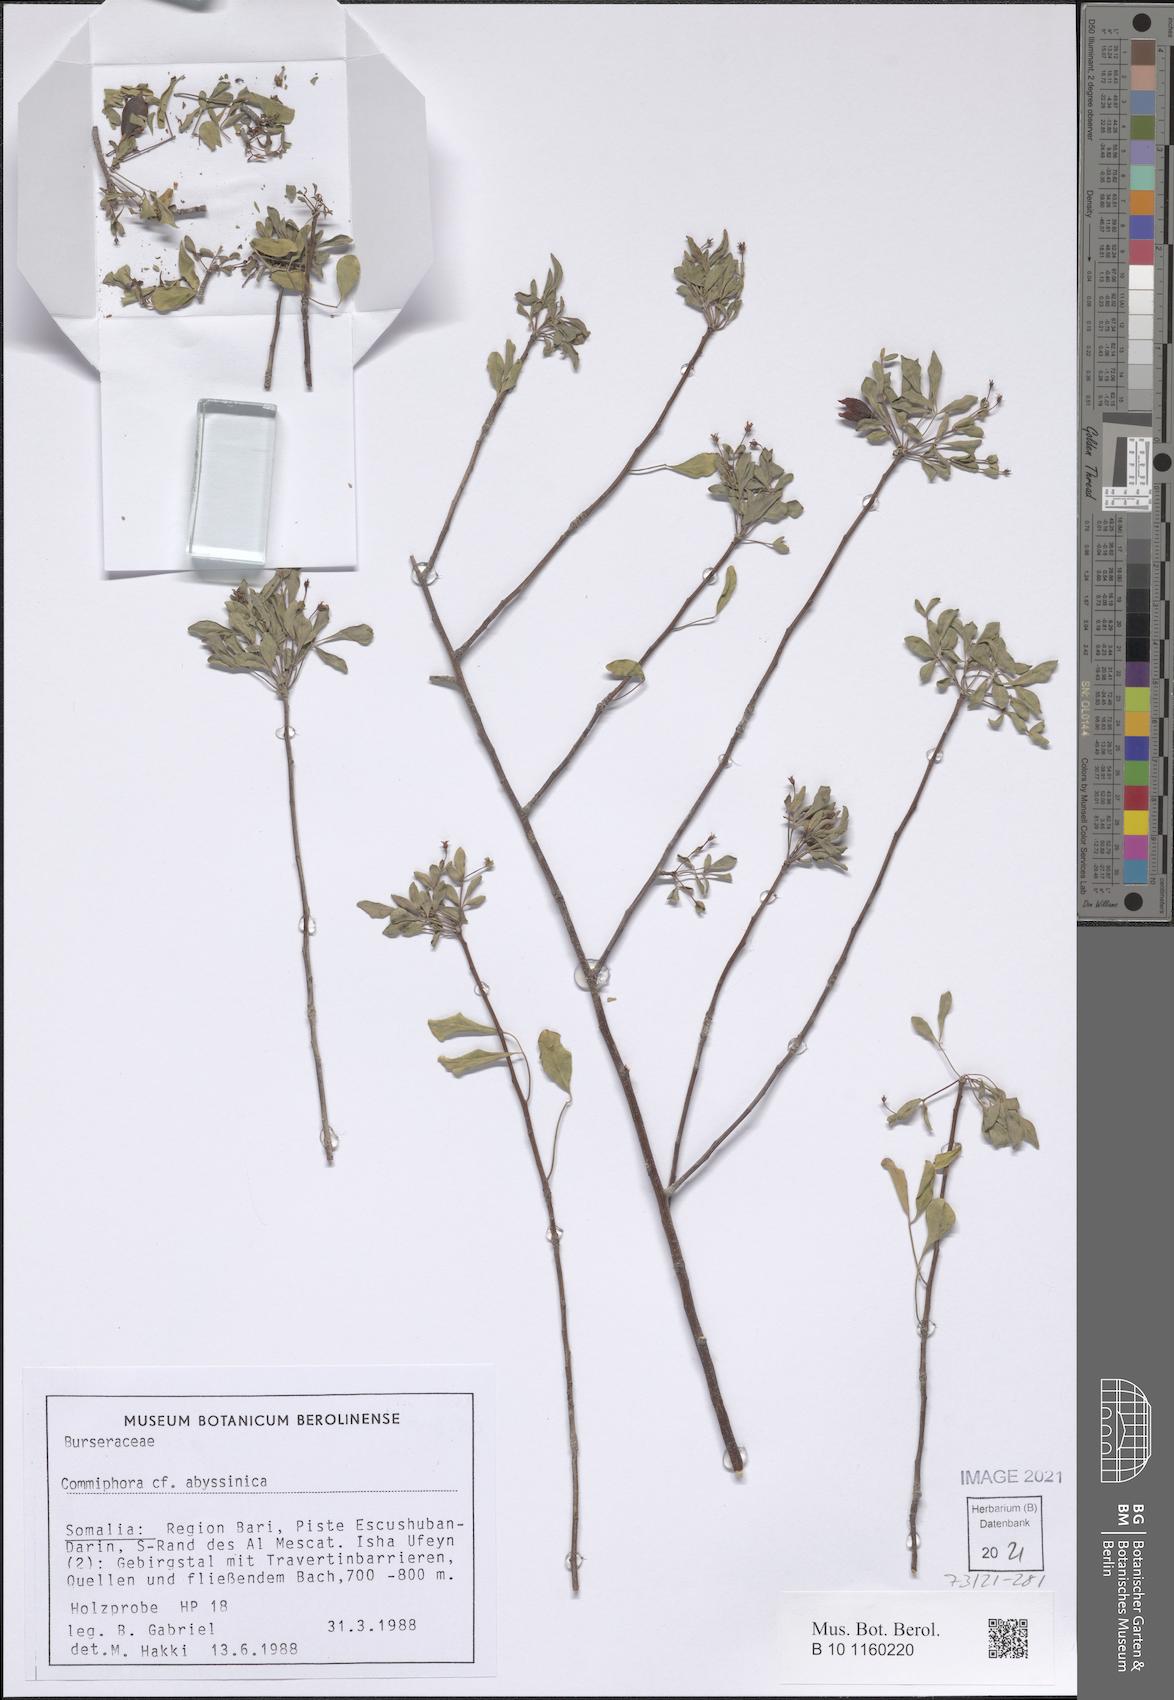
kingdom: Plantae
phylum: Tracheophyta
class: Magnoliopsida
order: Sapindales
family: Burseraceae
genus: Commiphora
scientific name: Commiphora foliacea
